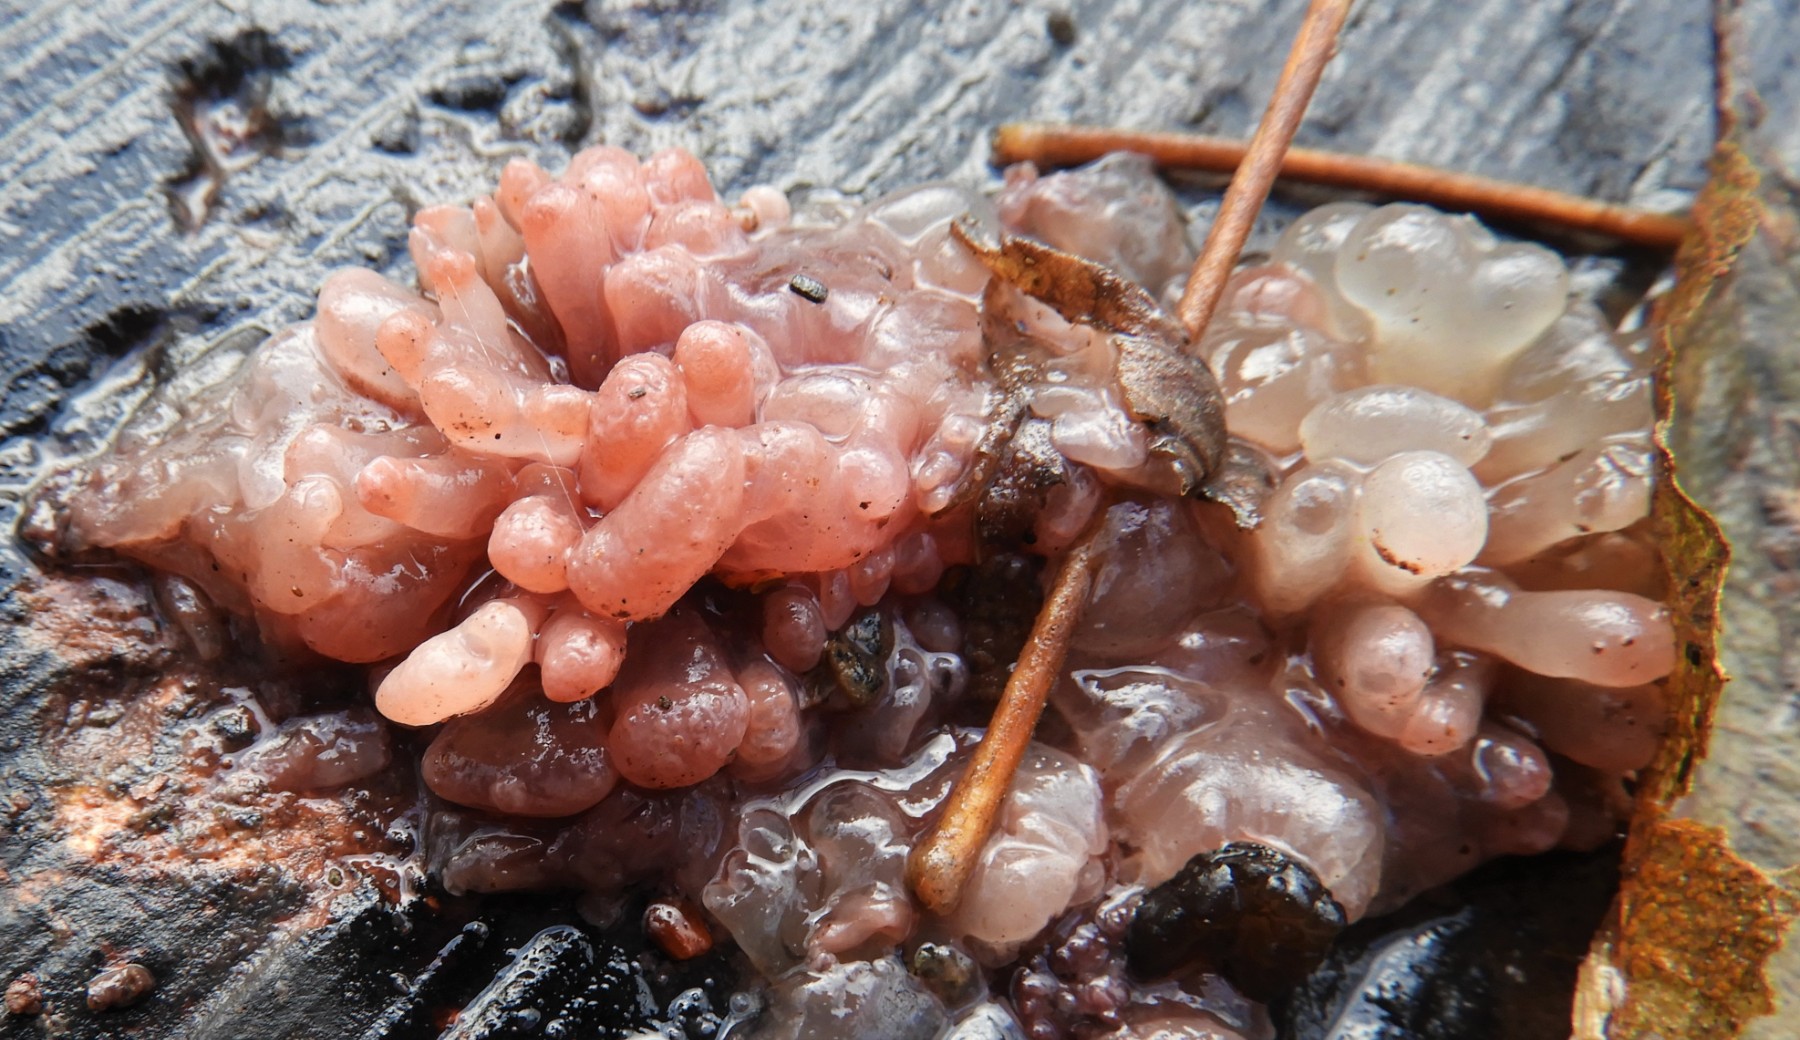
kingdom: Fungi
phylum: Ascomycota
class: Leotiomycetes
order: Helotiales
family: Gelatinodiscaceae
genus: Ascocoryne
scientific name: Ascocoryne sarcoides
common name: rødlilla sejskive
